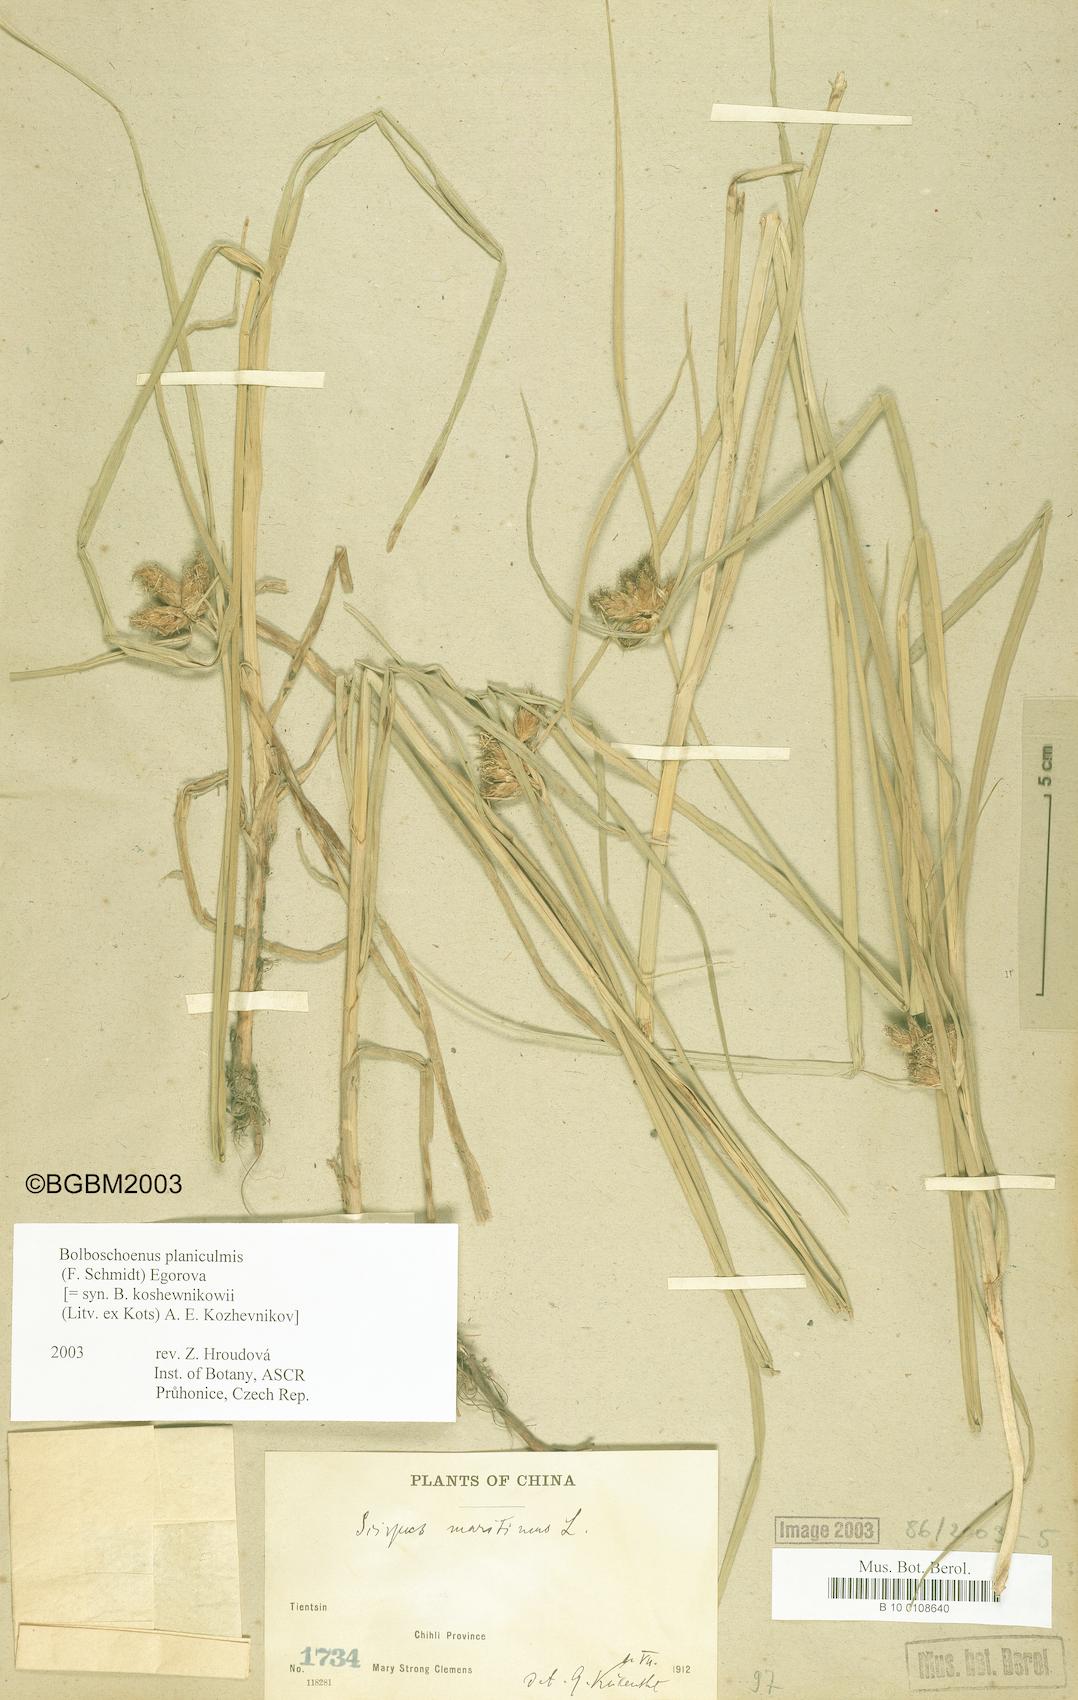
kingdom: Plantae
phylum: Tracheophyta
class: Liliopsida
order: Poales
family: Cyperaceae
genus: Bolboschoenus
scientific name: Bolboschoenus planiculmis
